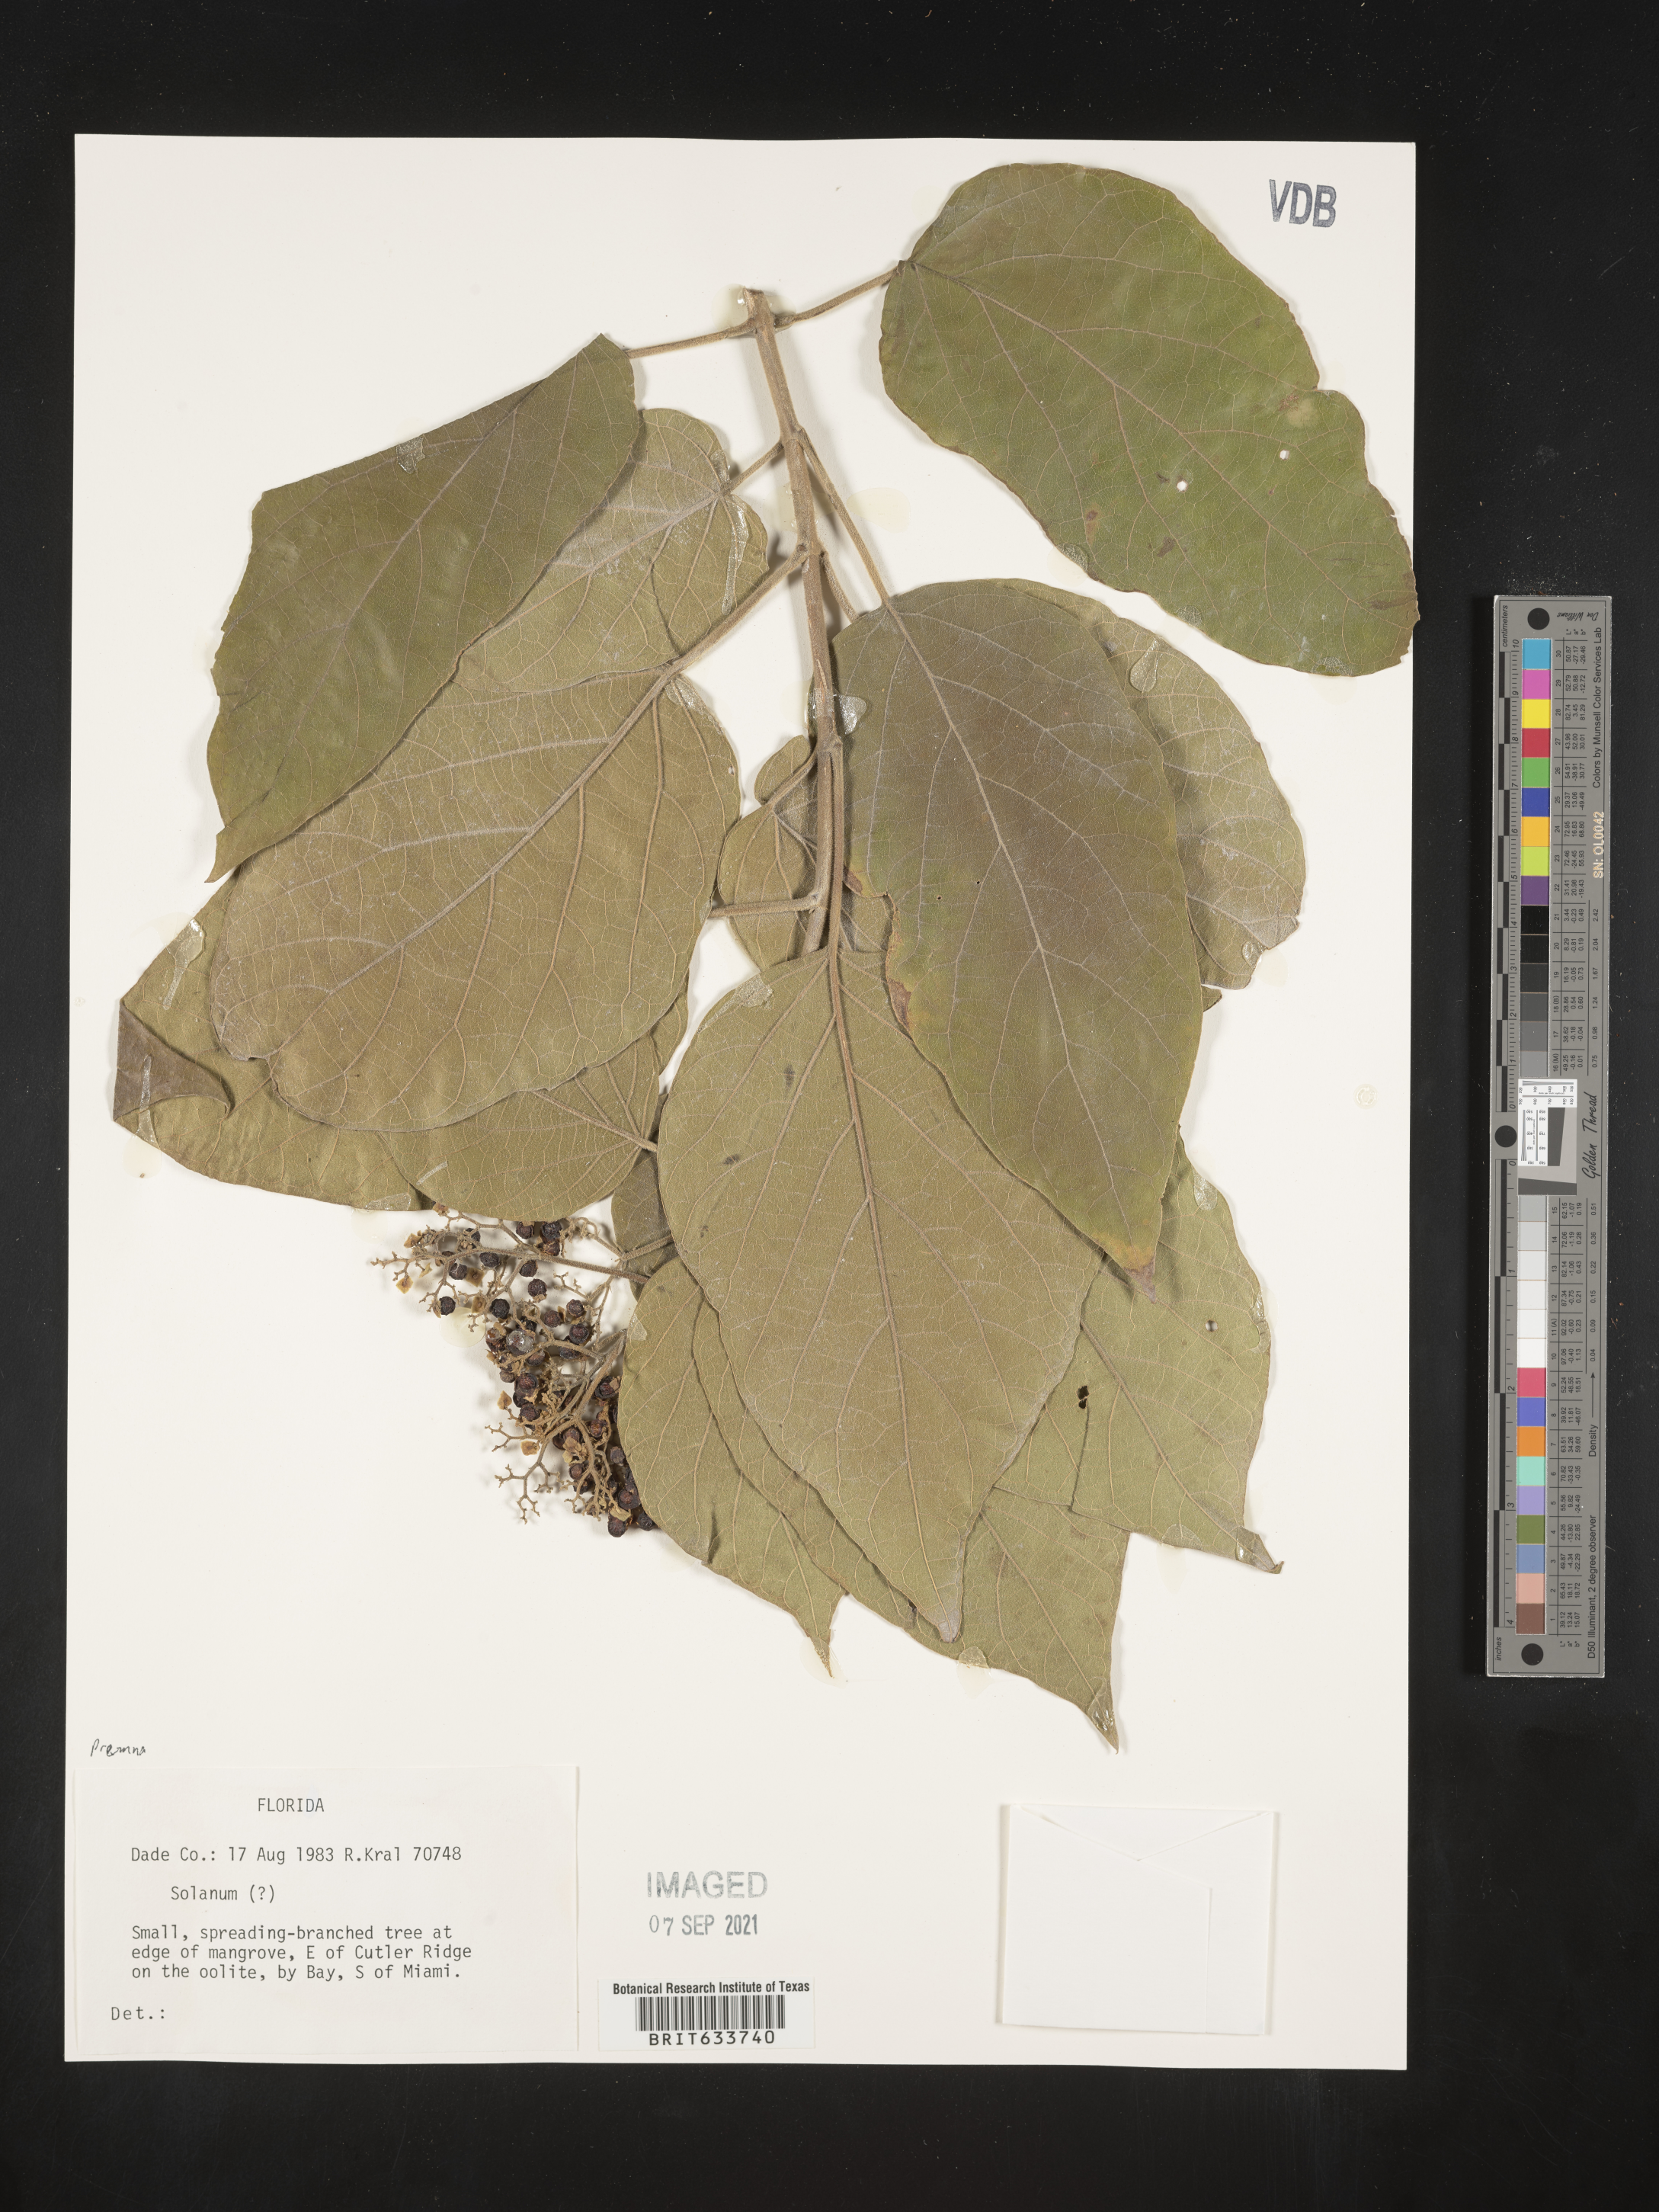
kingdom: Plantae
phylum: Tracheophyta
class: Magnoliopsida
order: Lamiales
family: Lamiaceae
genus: Premna
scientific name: Premna
